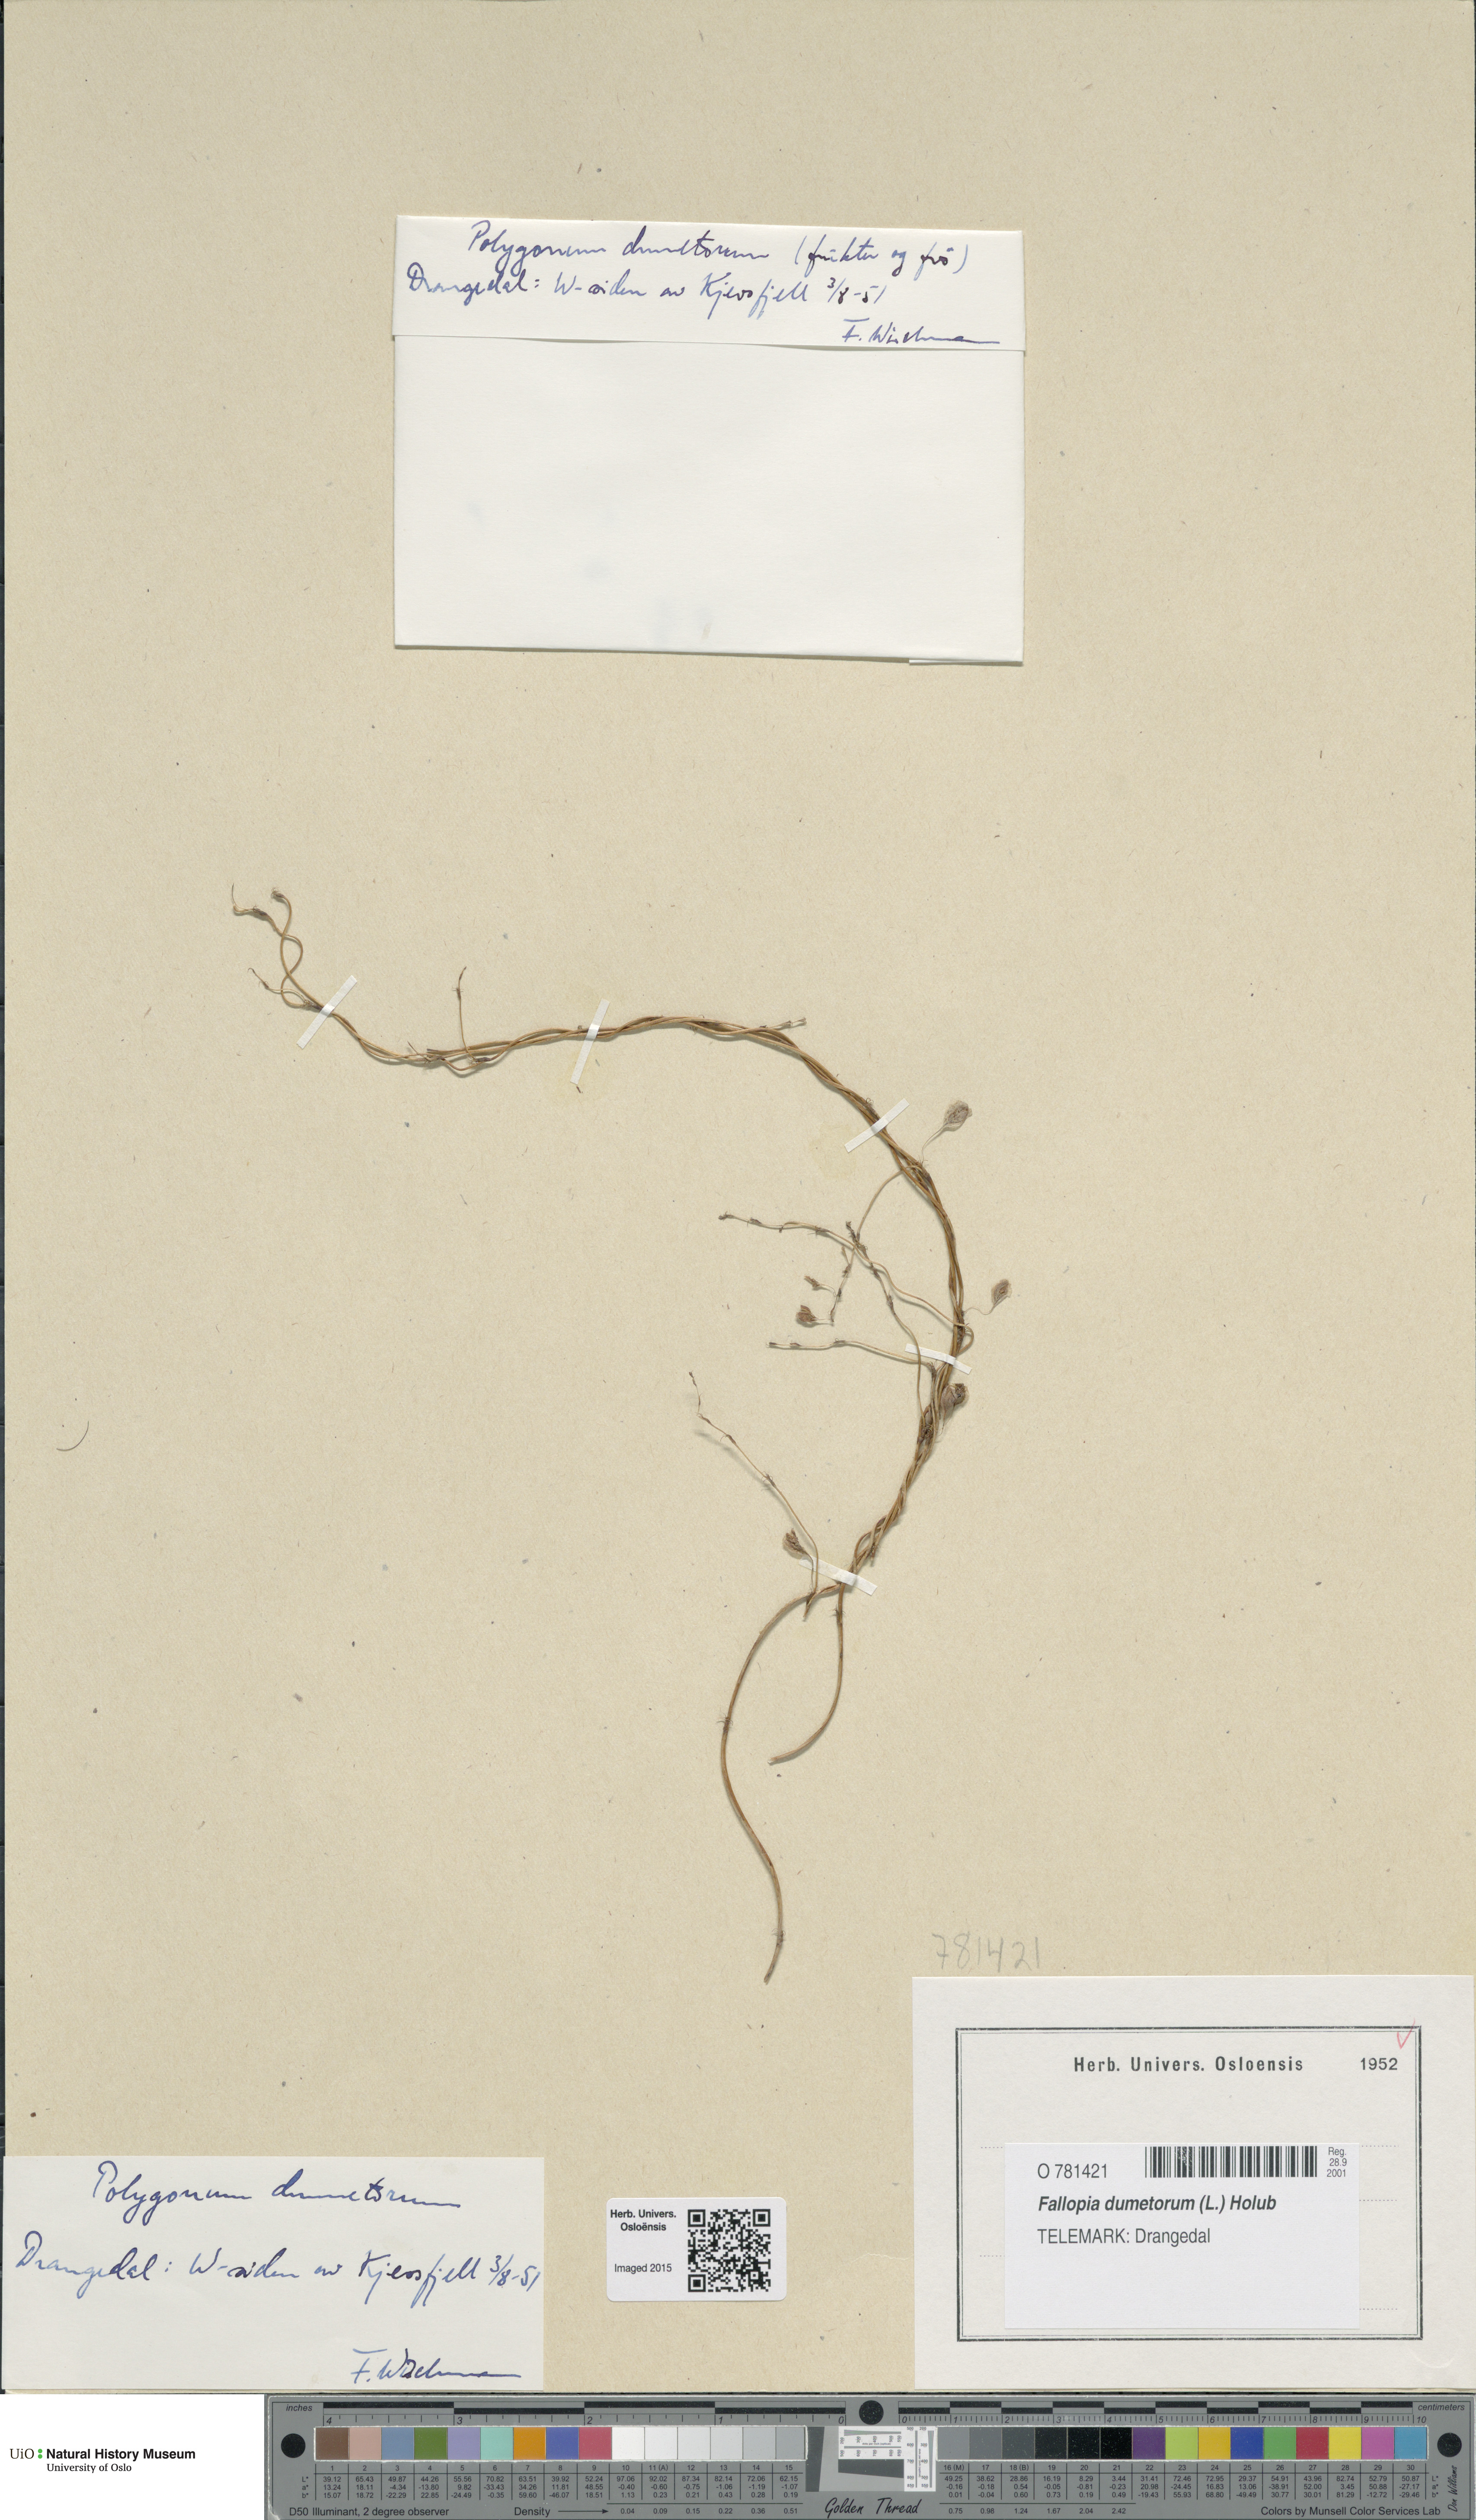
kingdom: Plantae
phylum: Tracheophyta
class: Magnoliopsida
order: Caryophyllales
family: Polygonaceae
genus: Fallopia
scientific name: Fallopia dumetorum
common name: Copse-bindweed
